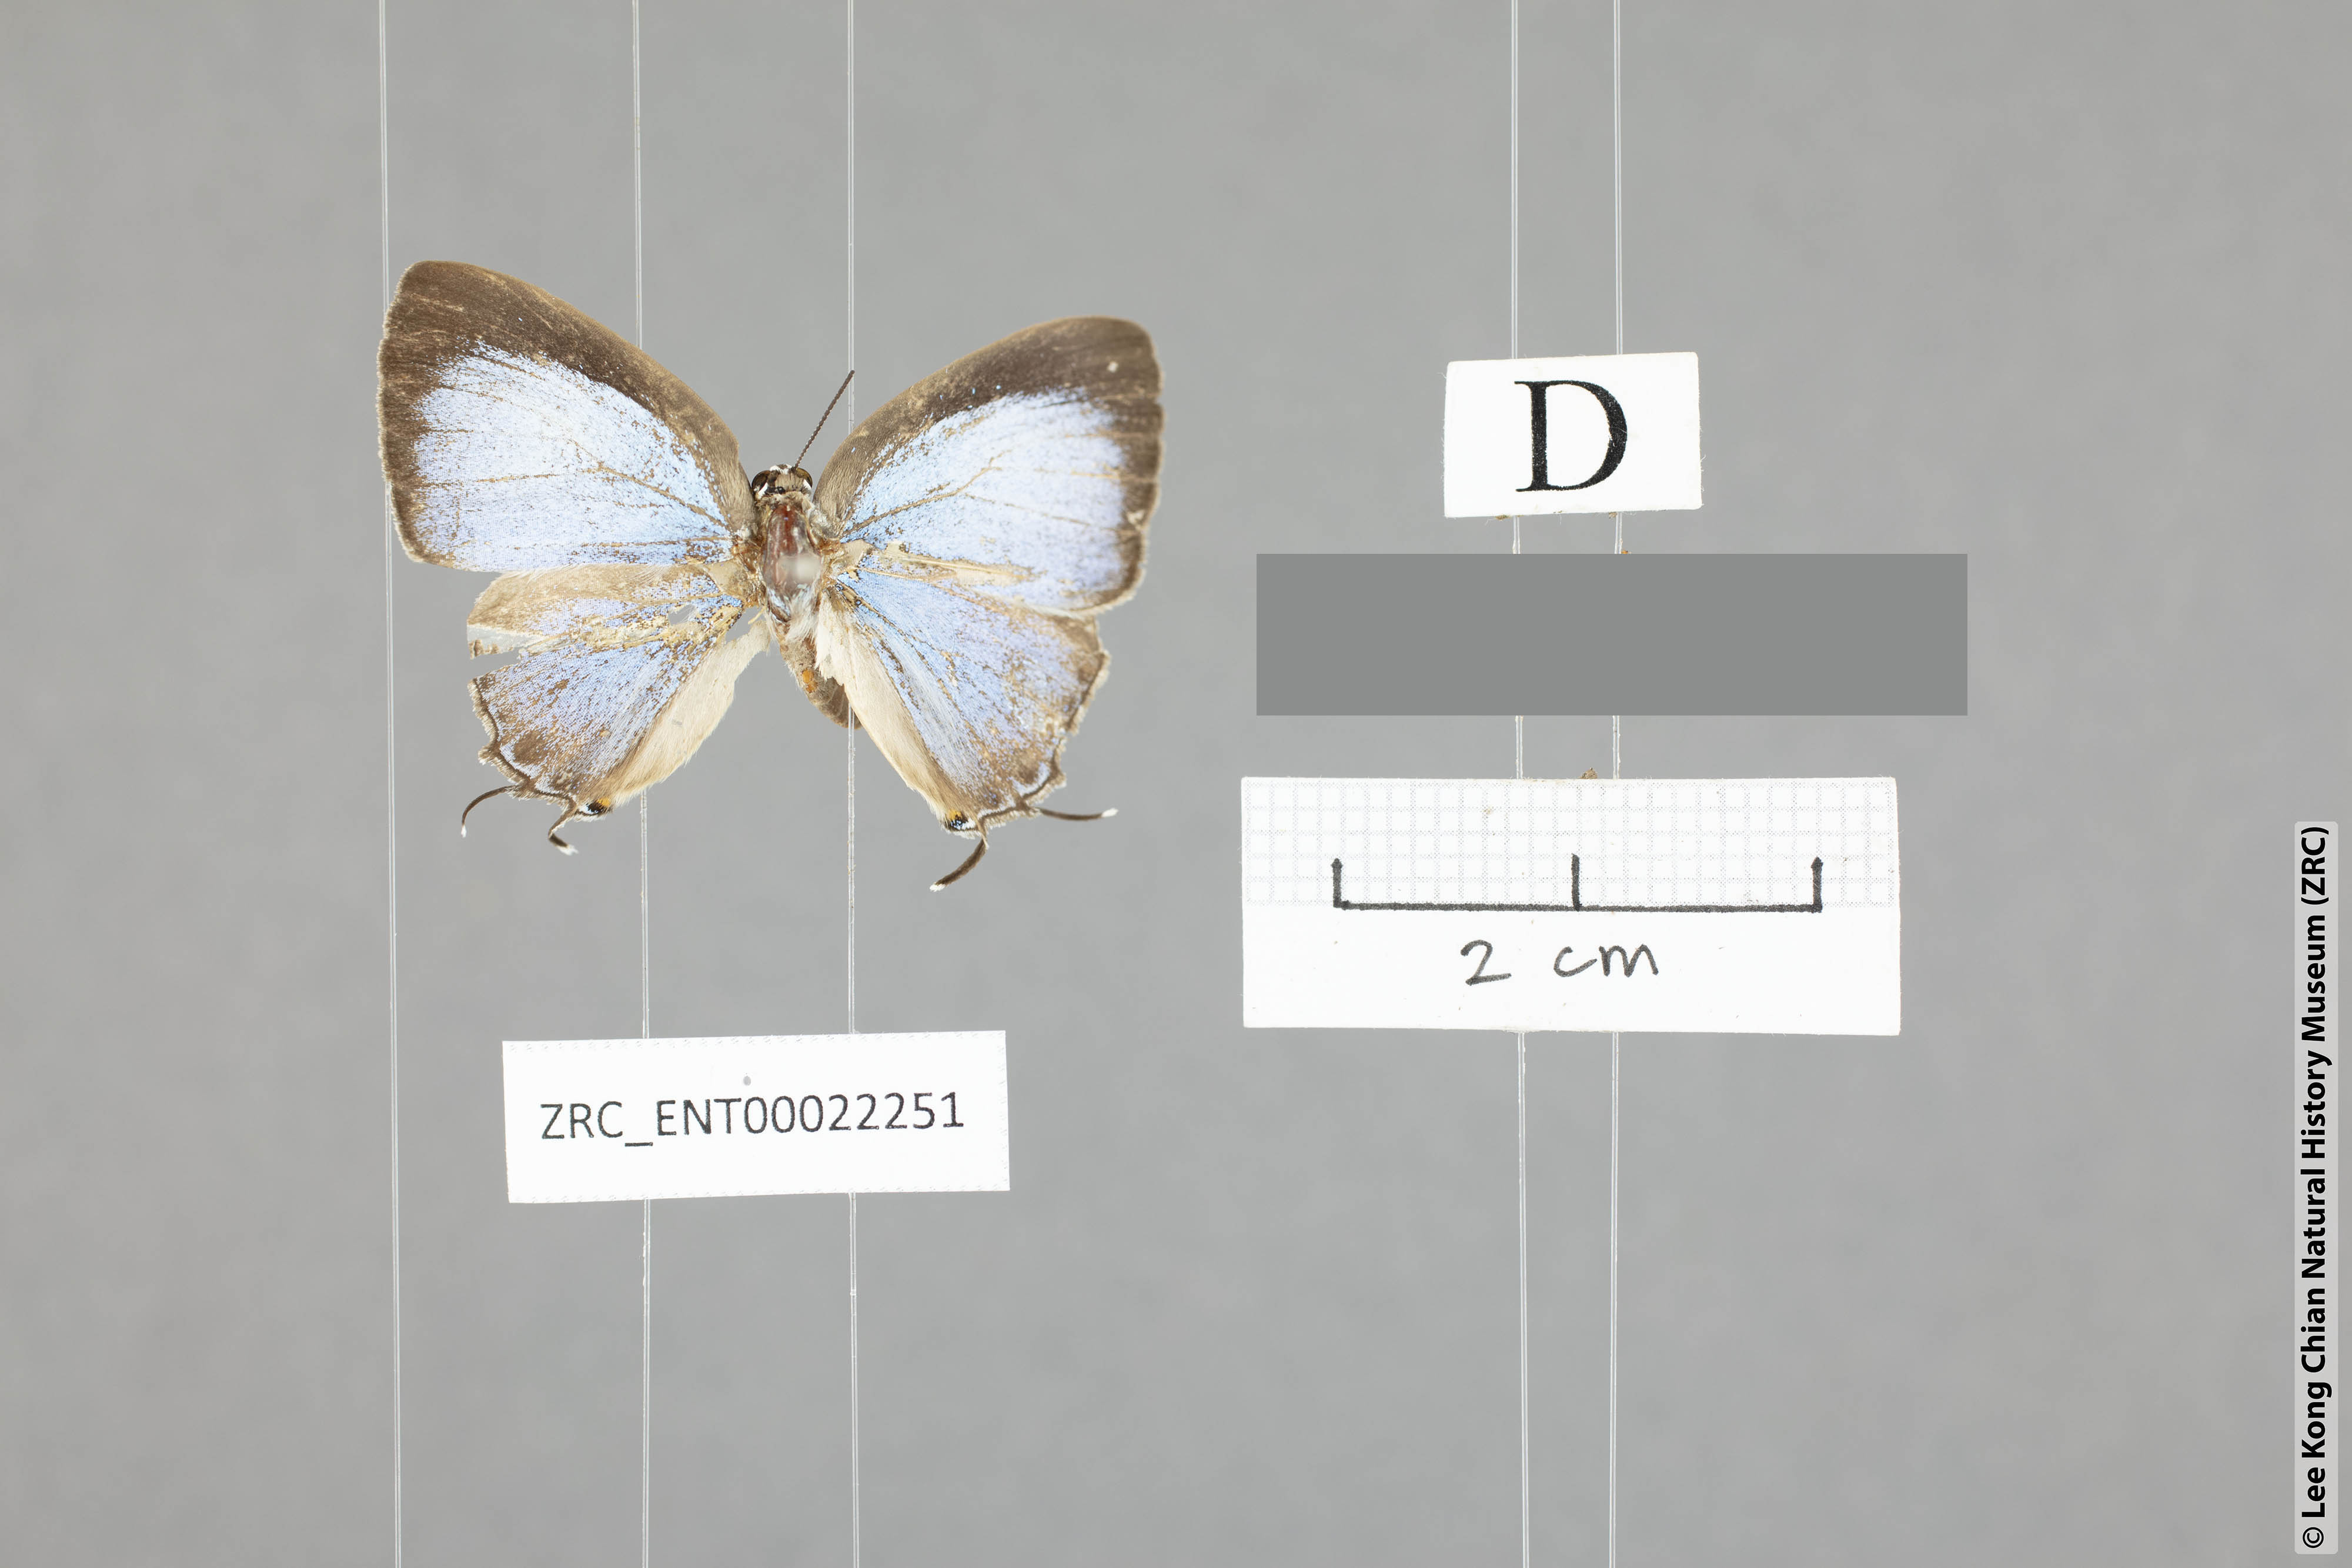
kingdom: Animalia
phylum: Arthropoda
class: Insecta
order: Lepidoptera
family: Lycaenidae
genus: Tajuria
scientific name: Tajuria sunia
